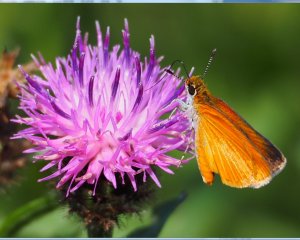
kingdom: Animalia
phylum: Arthropoda
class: Insecta
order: Lepidoptera
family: Hesperiidae
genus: Ancyloxypha
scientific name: Ancyloxypha numitor
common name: Least Skipper
